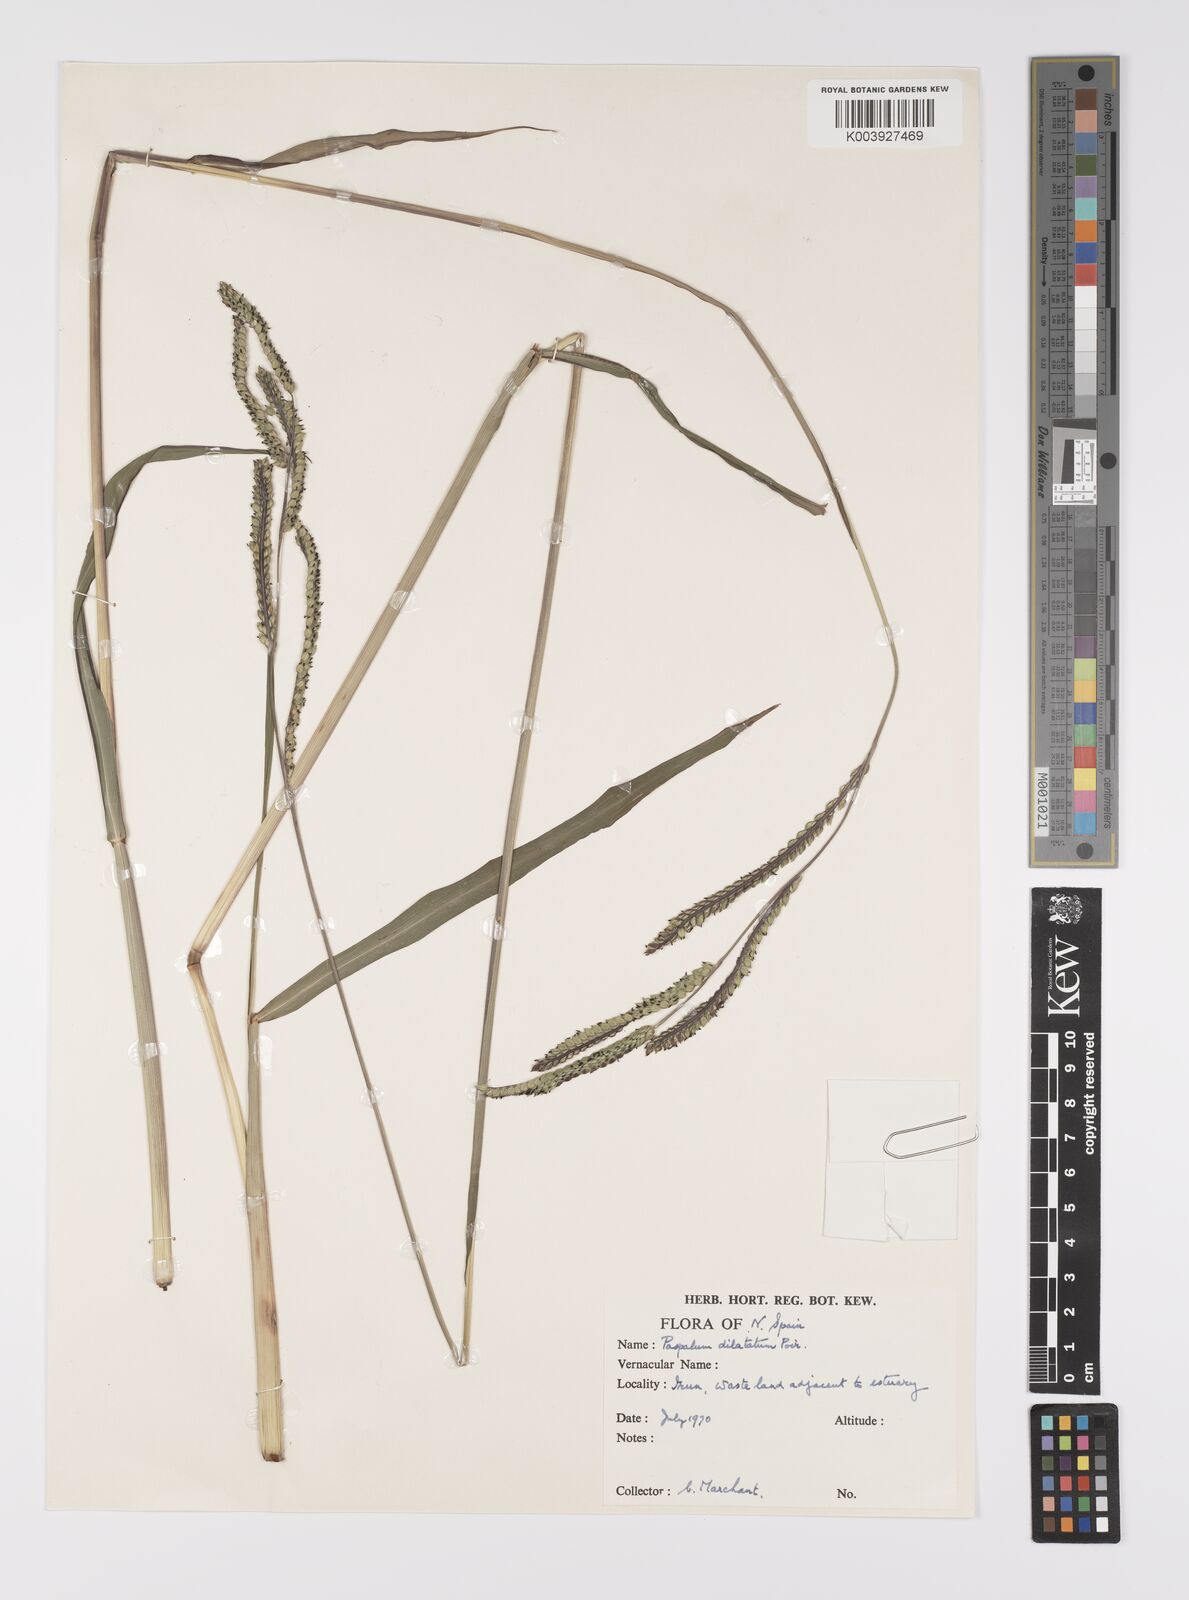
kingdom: Plantae
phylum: Tracheophyta
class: Liliopsida
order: Poales
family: Poaceae
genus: Paspalum
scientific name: Paspalum dilatatum
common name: Dallisgrass
